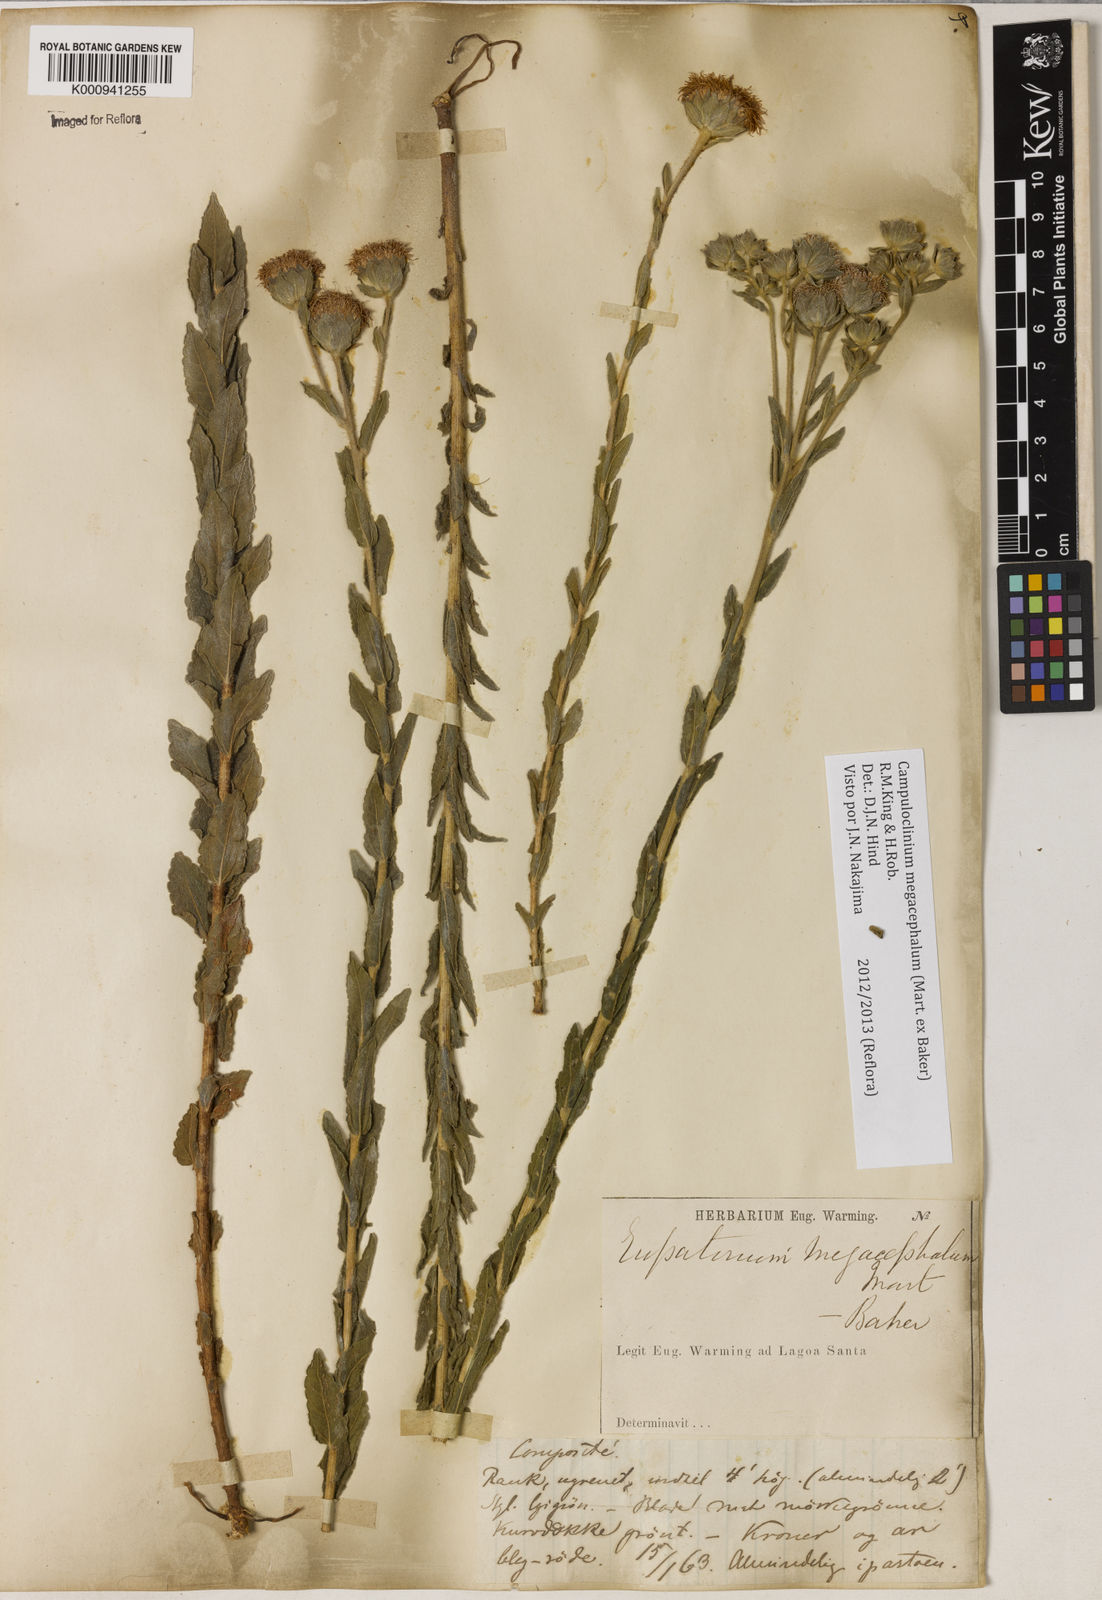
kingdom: Plantae
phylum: Tracheophyta
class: Magnoliopsida
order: Asterales
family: Asteraceae
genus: Campuloclinium
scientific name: Campuloclinium megacephalum
